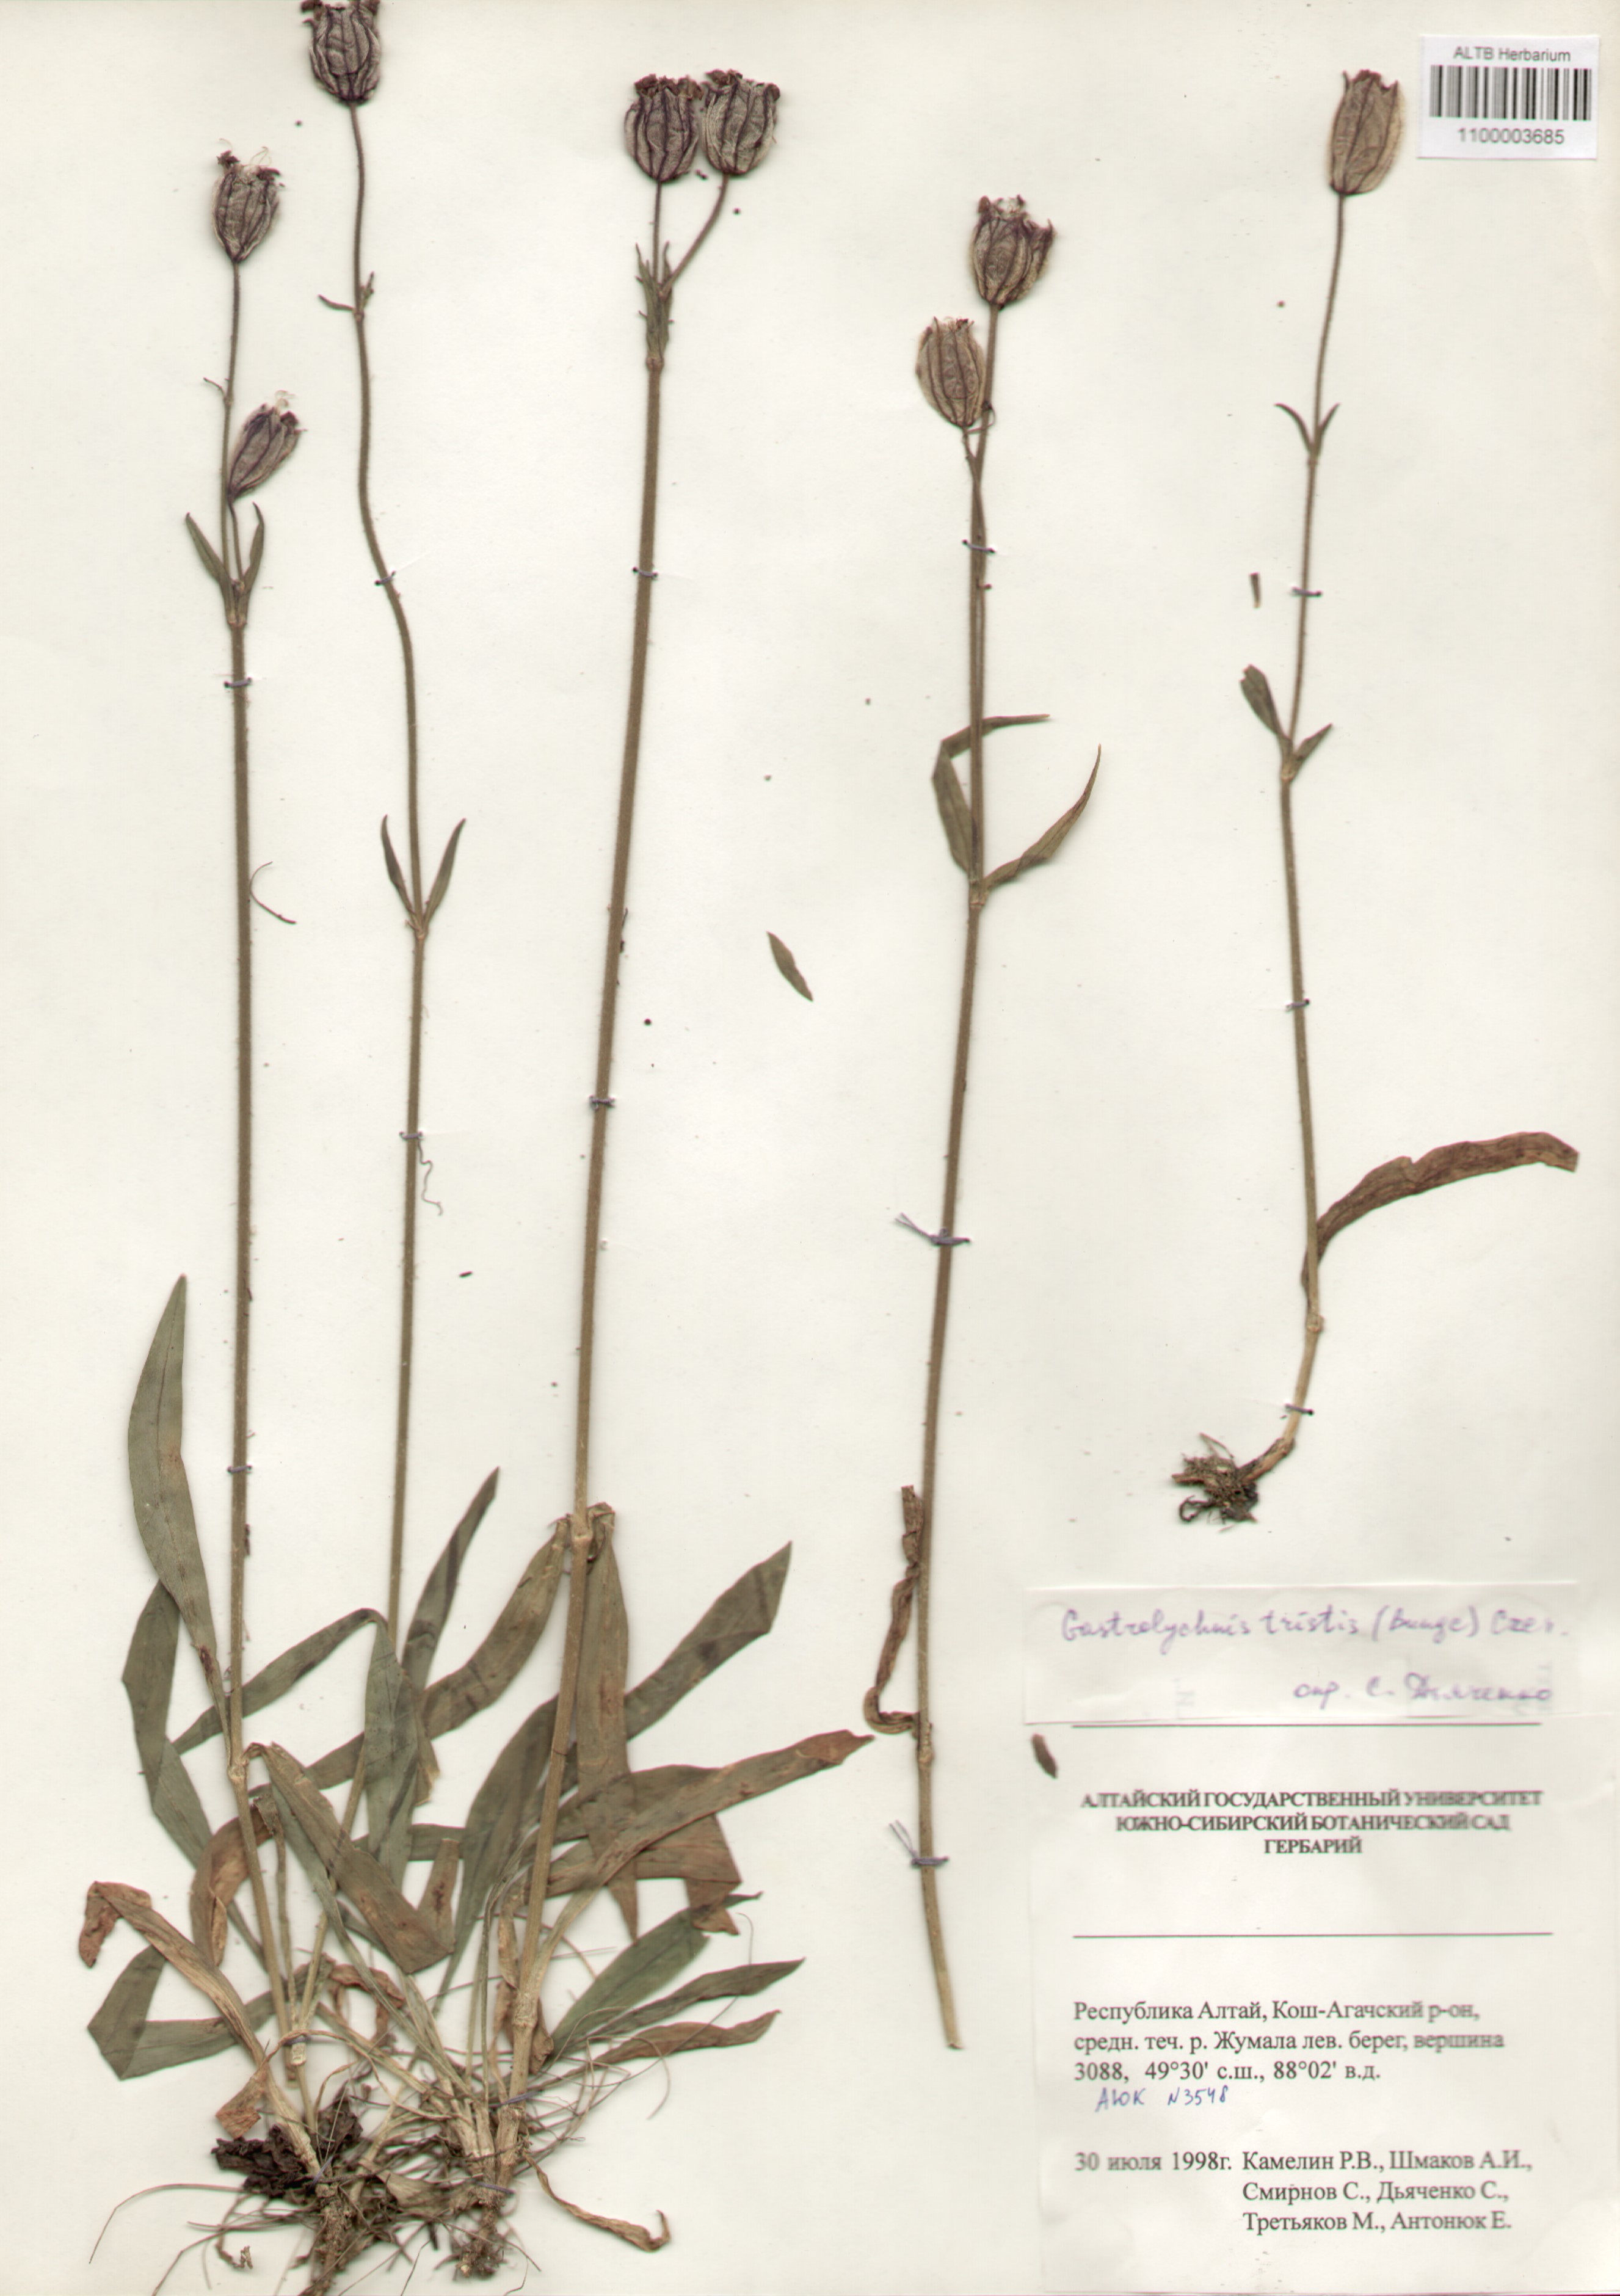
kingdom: Plantae
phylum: Tracheophyta
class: Magnoliopsida
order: Caryophyllales
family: Caryophyllaceae
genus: Silene
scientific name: Silene bungei
